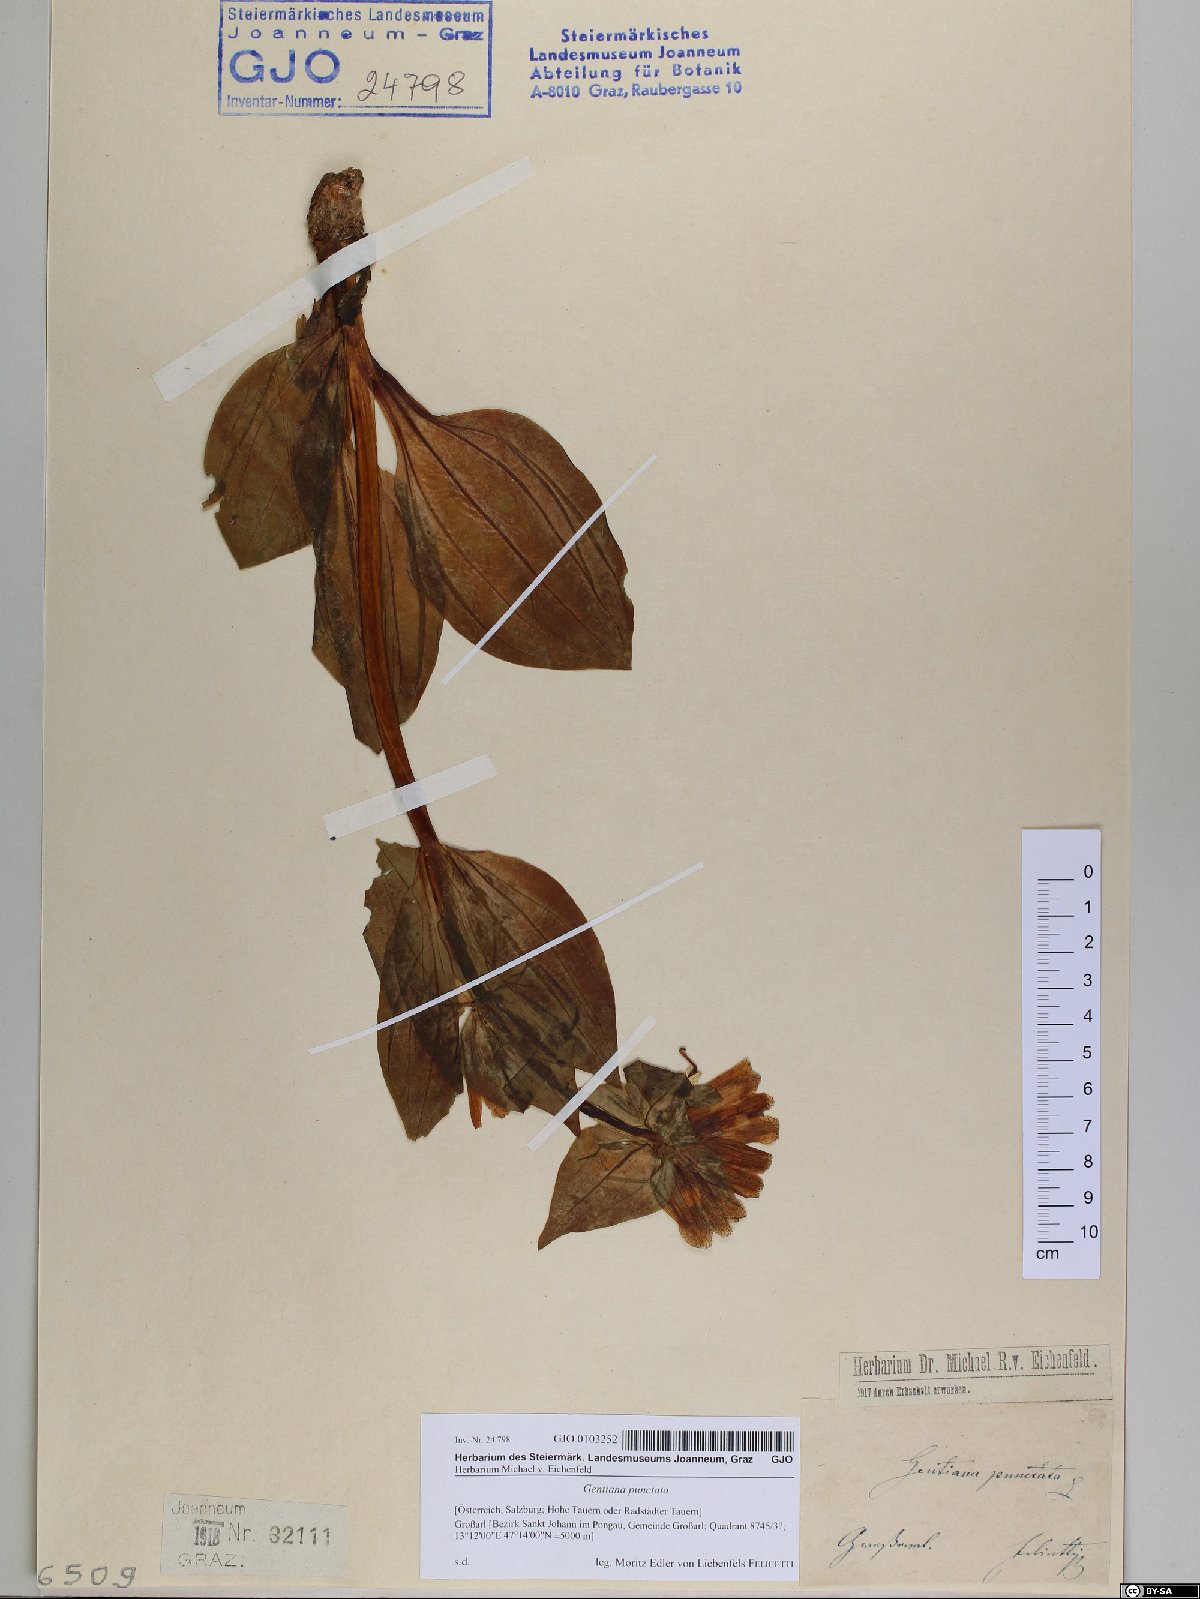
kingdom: Plantae
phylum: Tracheophyta
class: Magnoliopsida
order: Gentianales
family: Gentianaceae
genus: Gentiana
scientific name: Gentiana punctata
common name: Spotted gentian
